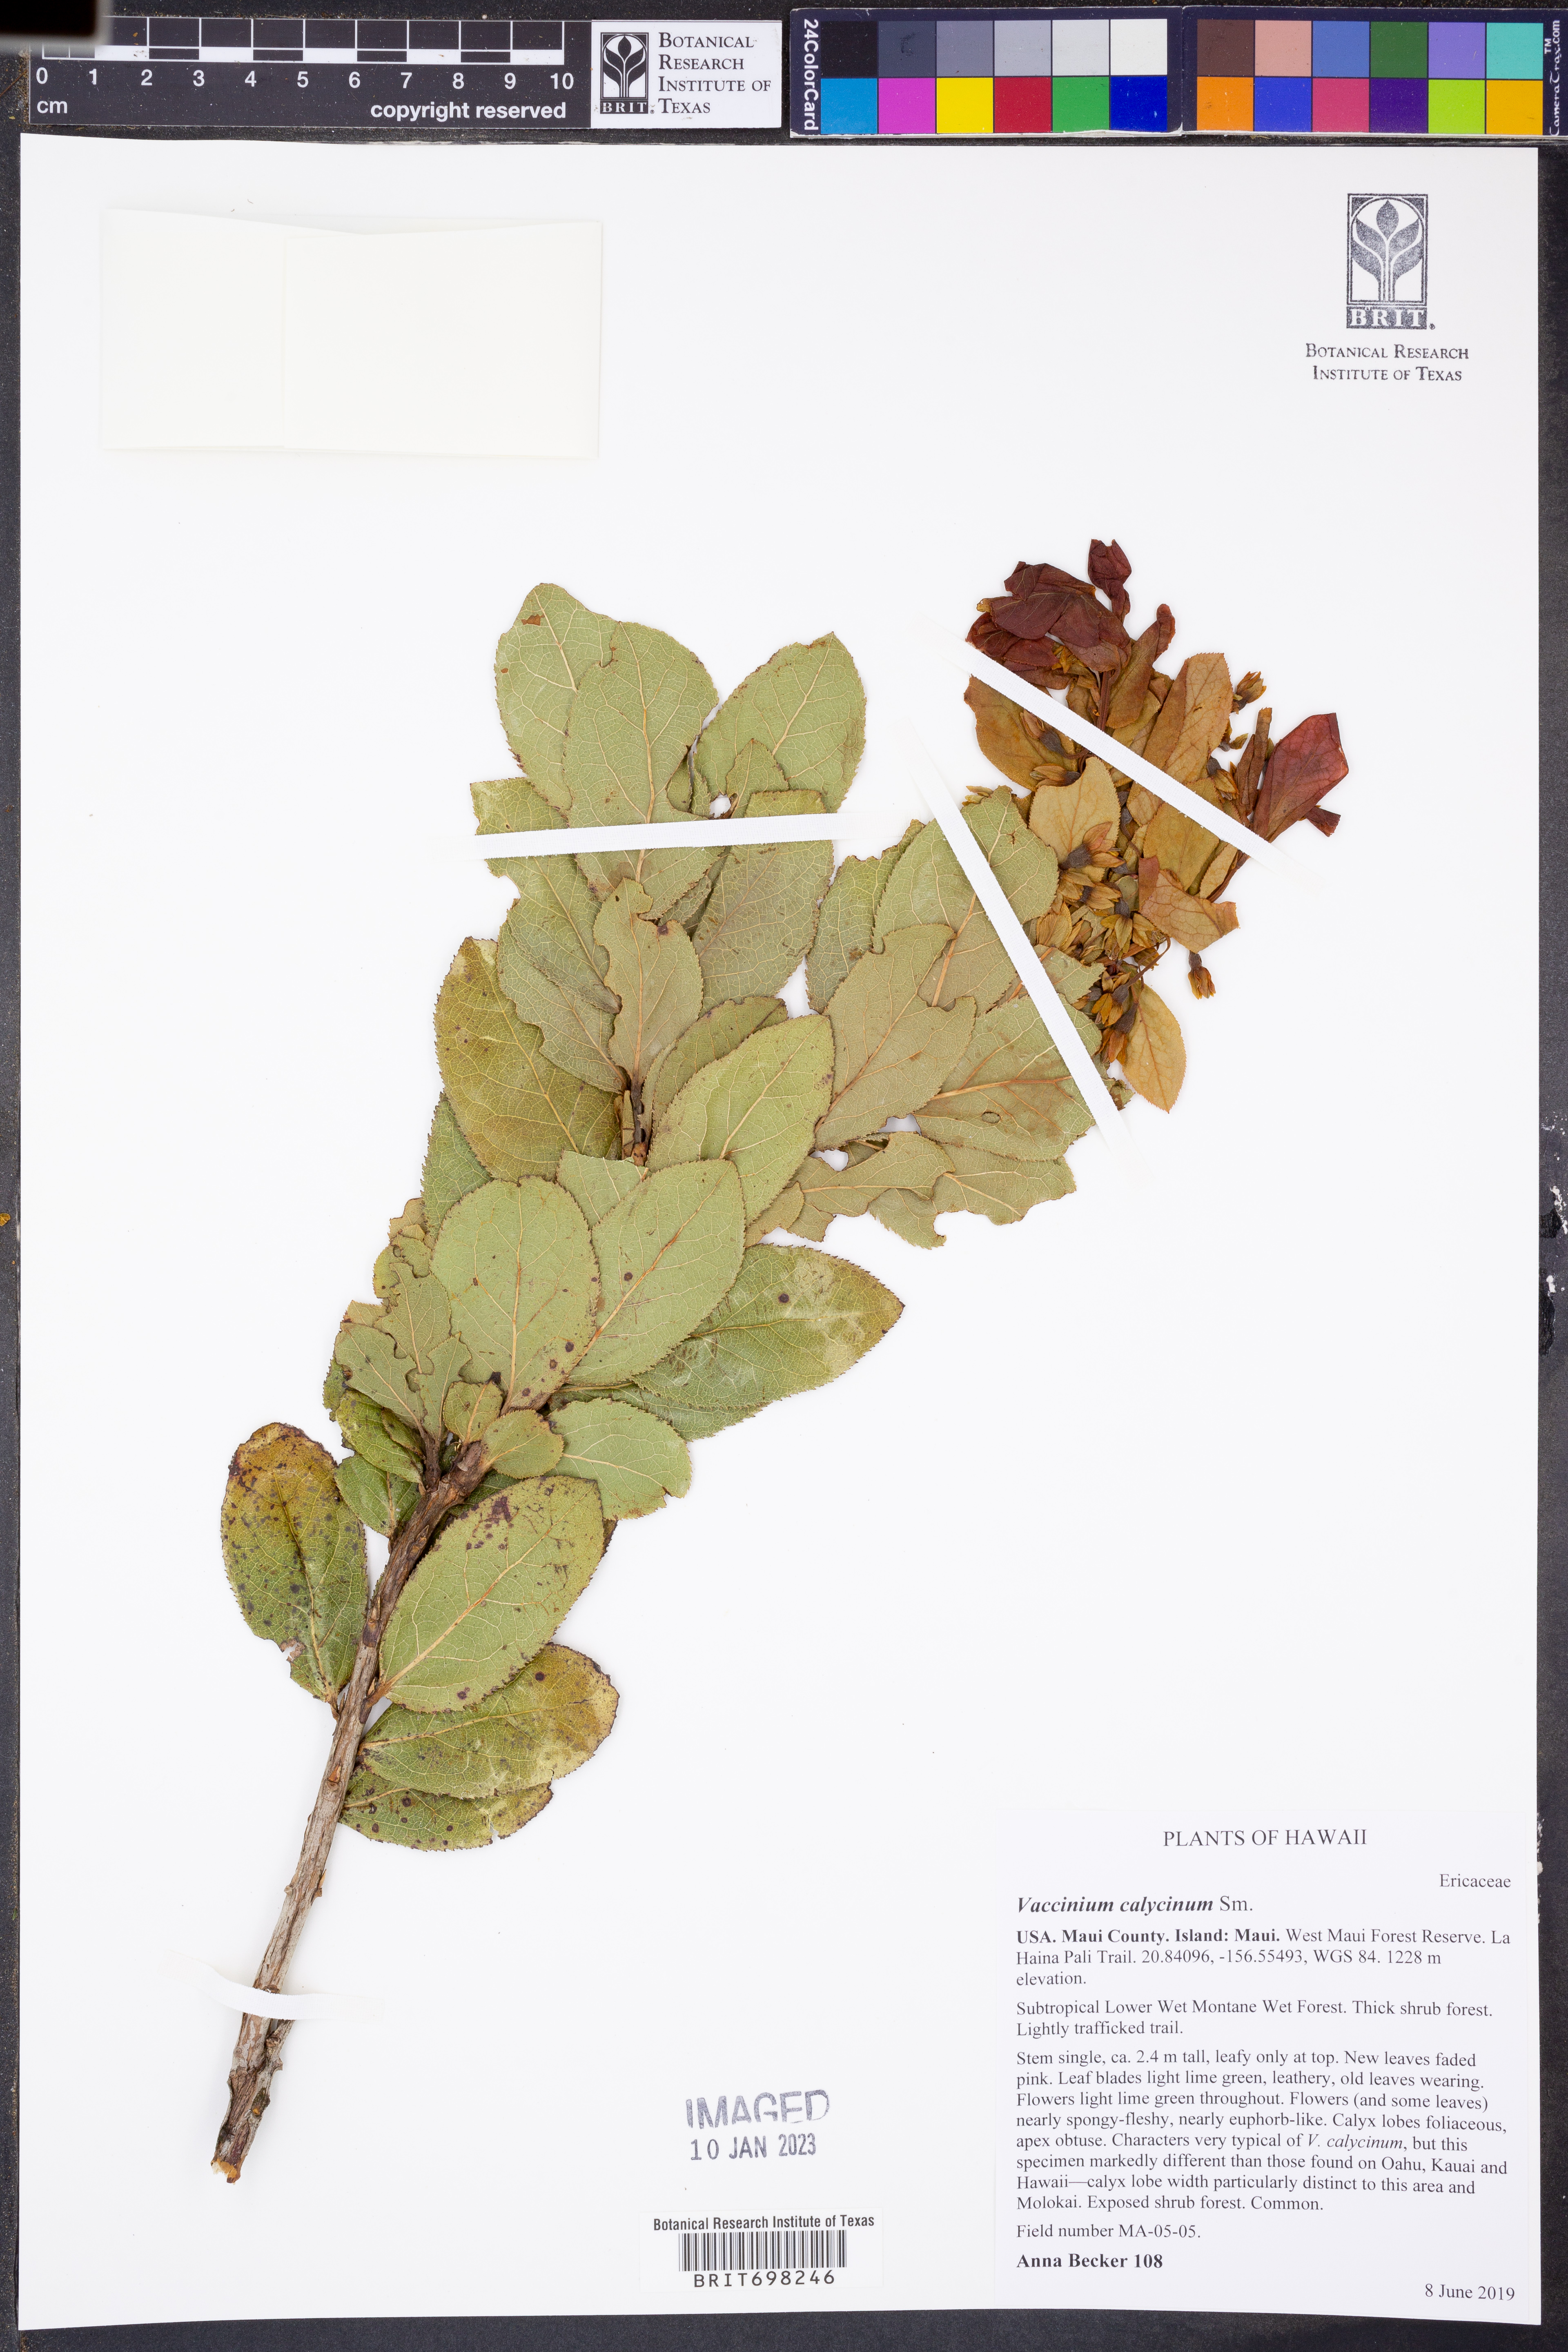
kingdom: Plantae
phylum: Tracheophyta
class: Magnoliopsida
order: Ericales
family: Ericaceae
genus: Vaccinium
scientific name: Vaccinium calycinum
